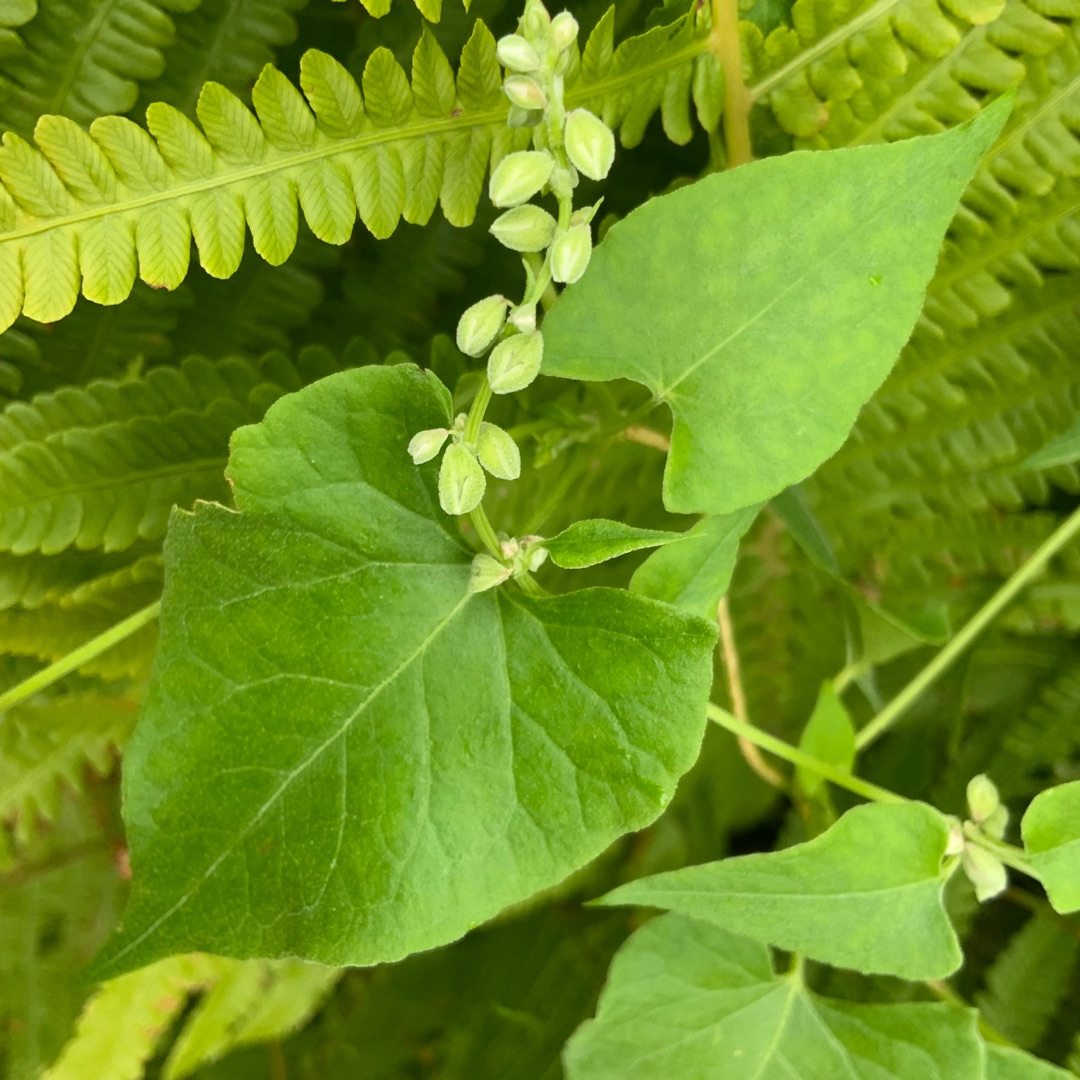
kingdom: Plantae
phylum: Tracheophyta
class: Magnoliopsida
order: Caryophyllales
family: Polygonaceae
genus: Fallopia
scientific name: Fallopia convolvulus
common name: Snerle-pileurt
